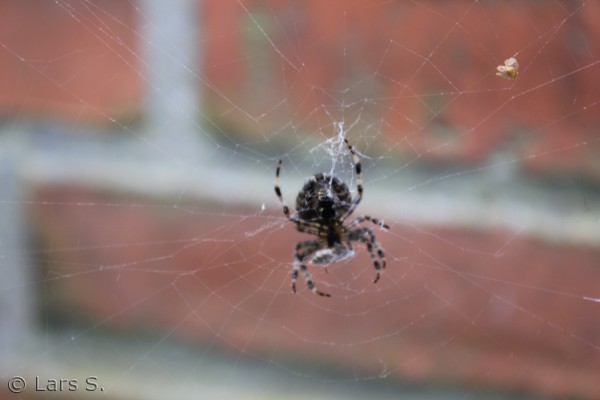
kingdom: Animalia
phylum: Arthropoda
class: Arachnida
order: Araneae
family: Araneidae
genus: Araneus
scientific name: Araneus diadematus
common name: Korsedderkop
